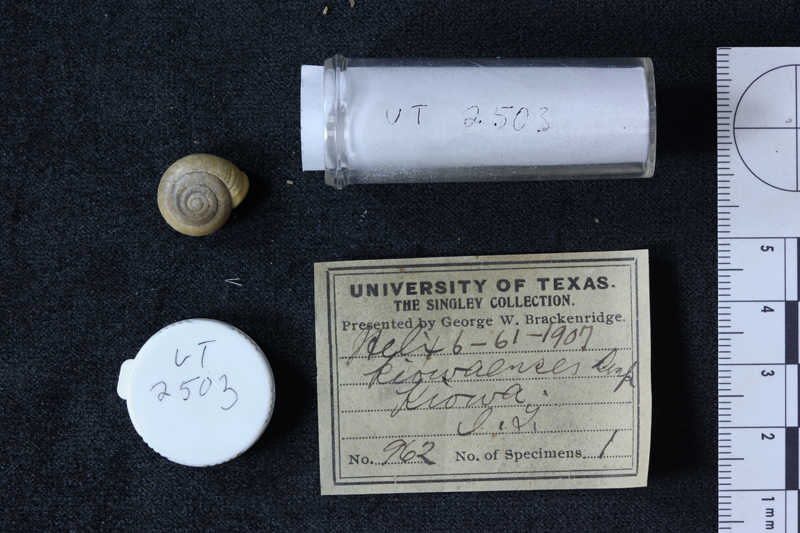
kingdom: Animalia
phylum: Mollusca
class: Gastropoda
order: Stylommatophora
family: Polygyridae
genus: Patera
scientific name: Patera kiowaensis
